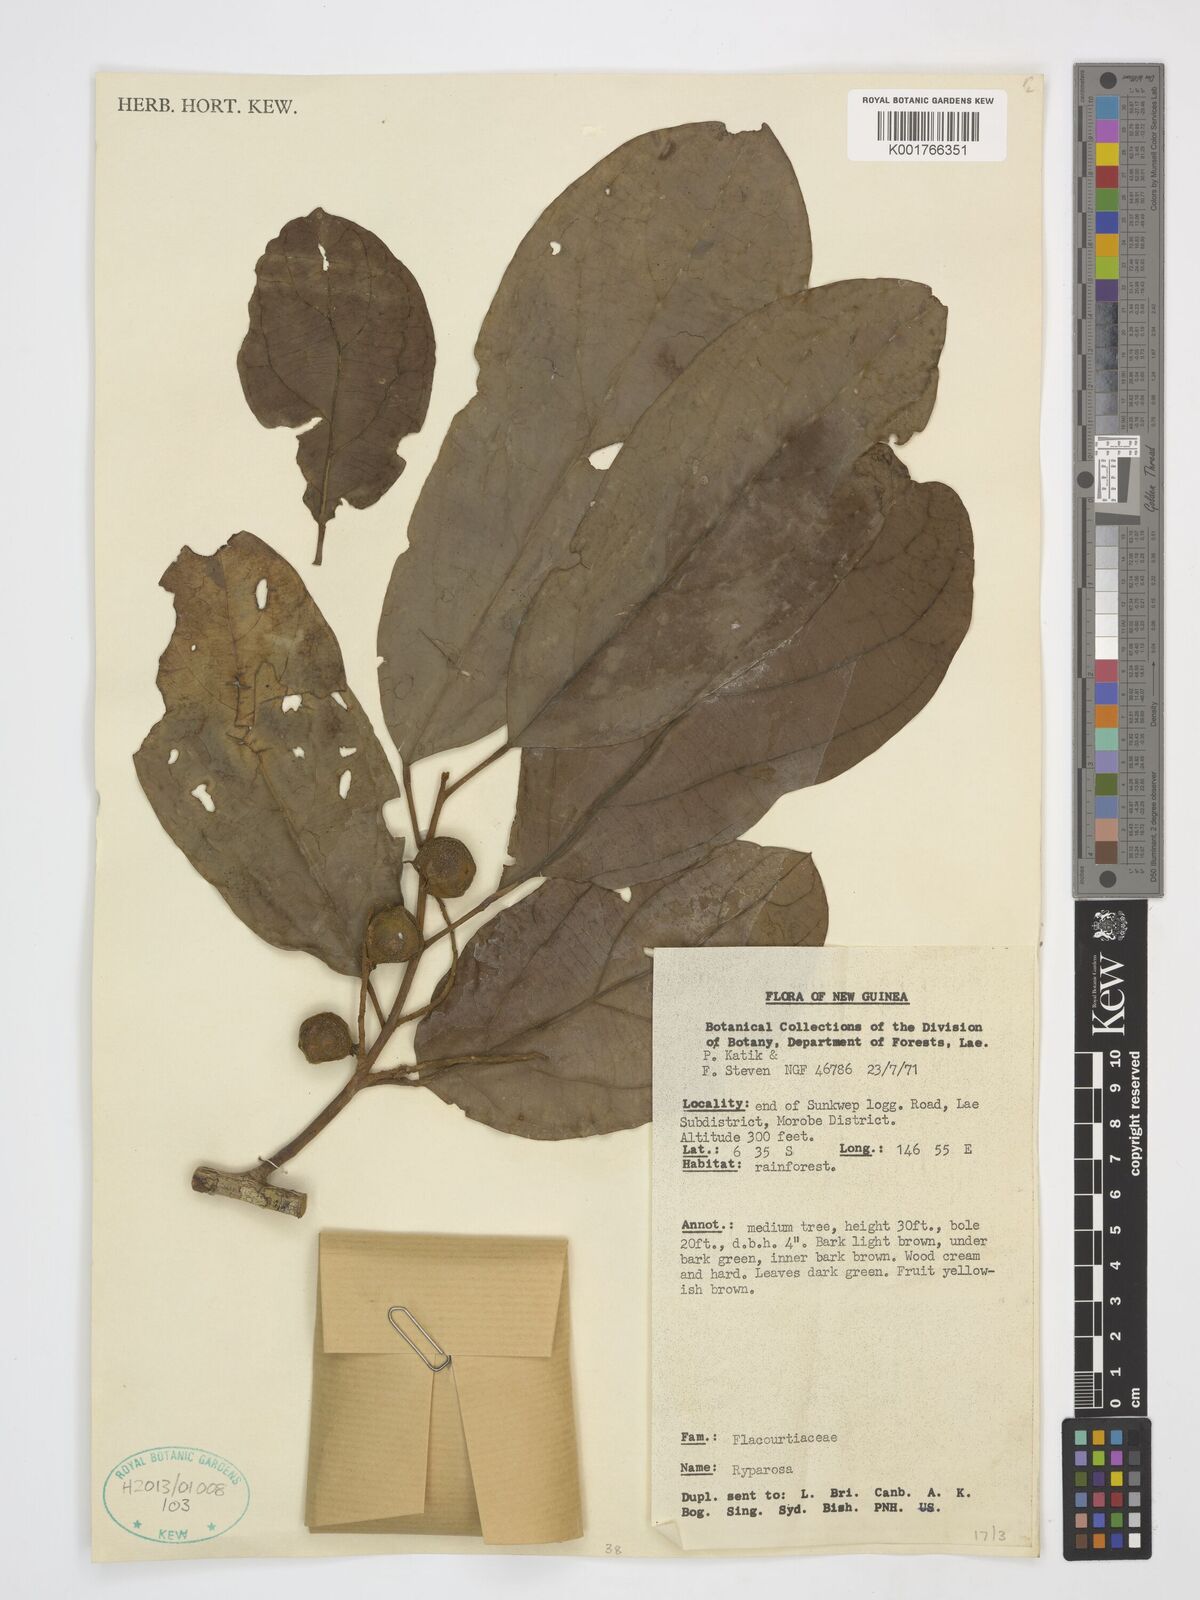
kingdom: Plantae
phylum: Tracheophyta
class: Magnoliopsida
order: Malpighiales
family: Achariaceae
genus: Ryparosa
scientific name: Ryparosa
